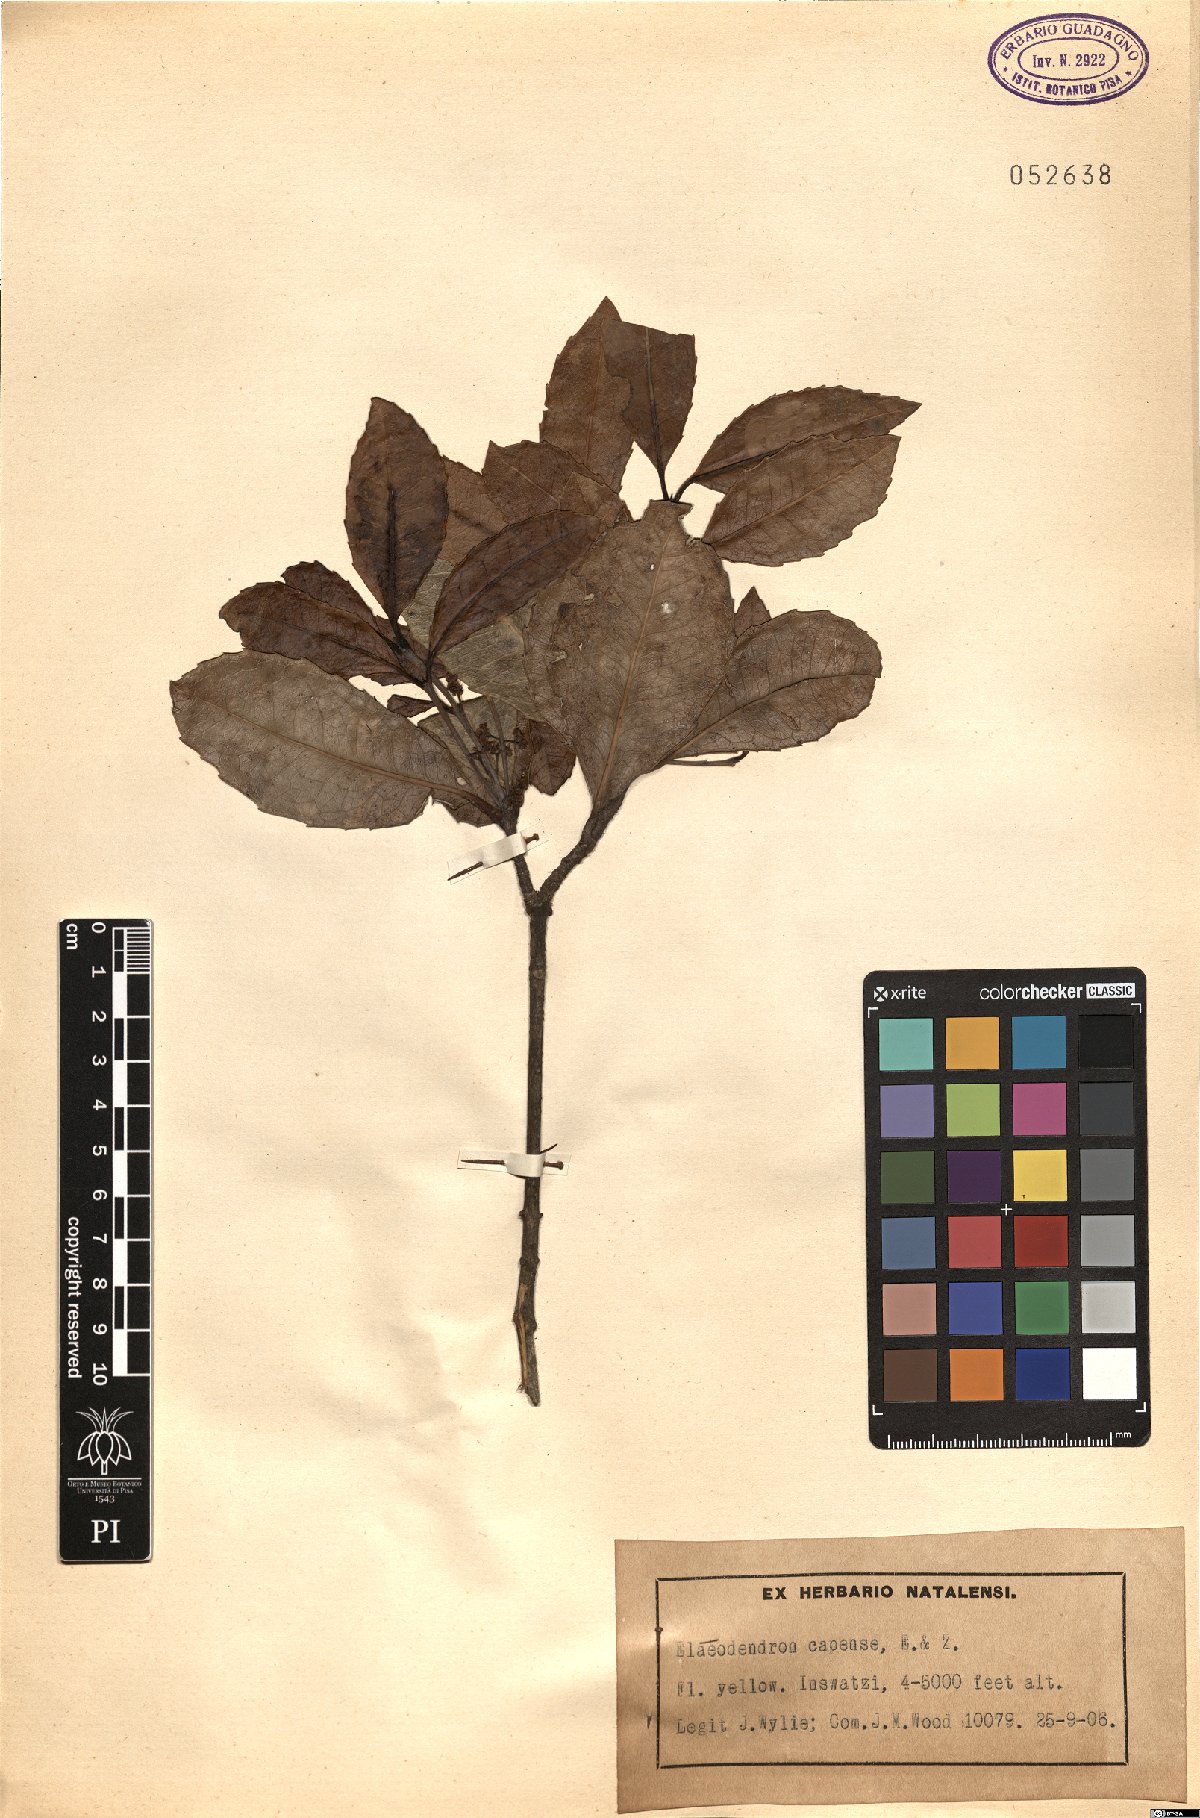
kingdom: Plantae
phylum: Tracheophyta
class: Magnoliopsida
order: Celastrales
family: Celastraceae
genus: Elaeodendron
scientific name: Elaeodendron croceum
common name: Saffron
